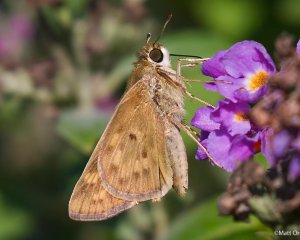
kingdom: Animalia
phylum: Arthropoda
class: Insecta
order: Lepidoptera
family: Hesperiidae
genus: Hylephila
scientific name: Hylephila phyleus
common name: Fiery Skipper
